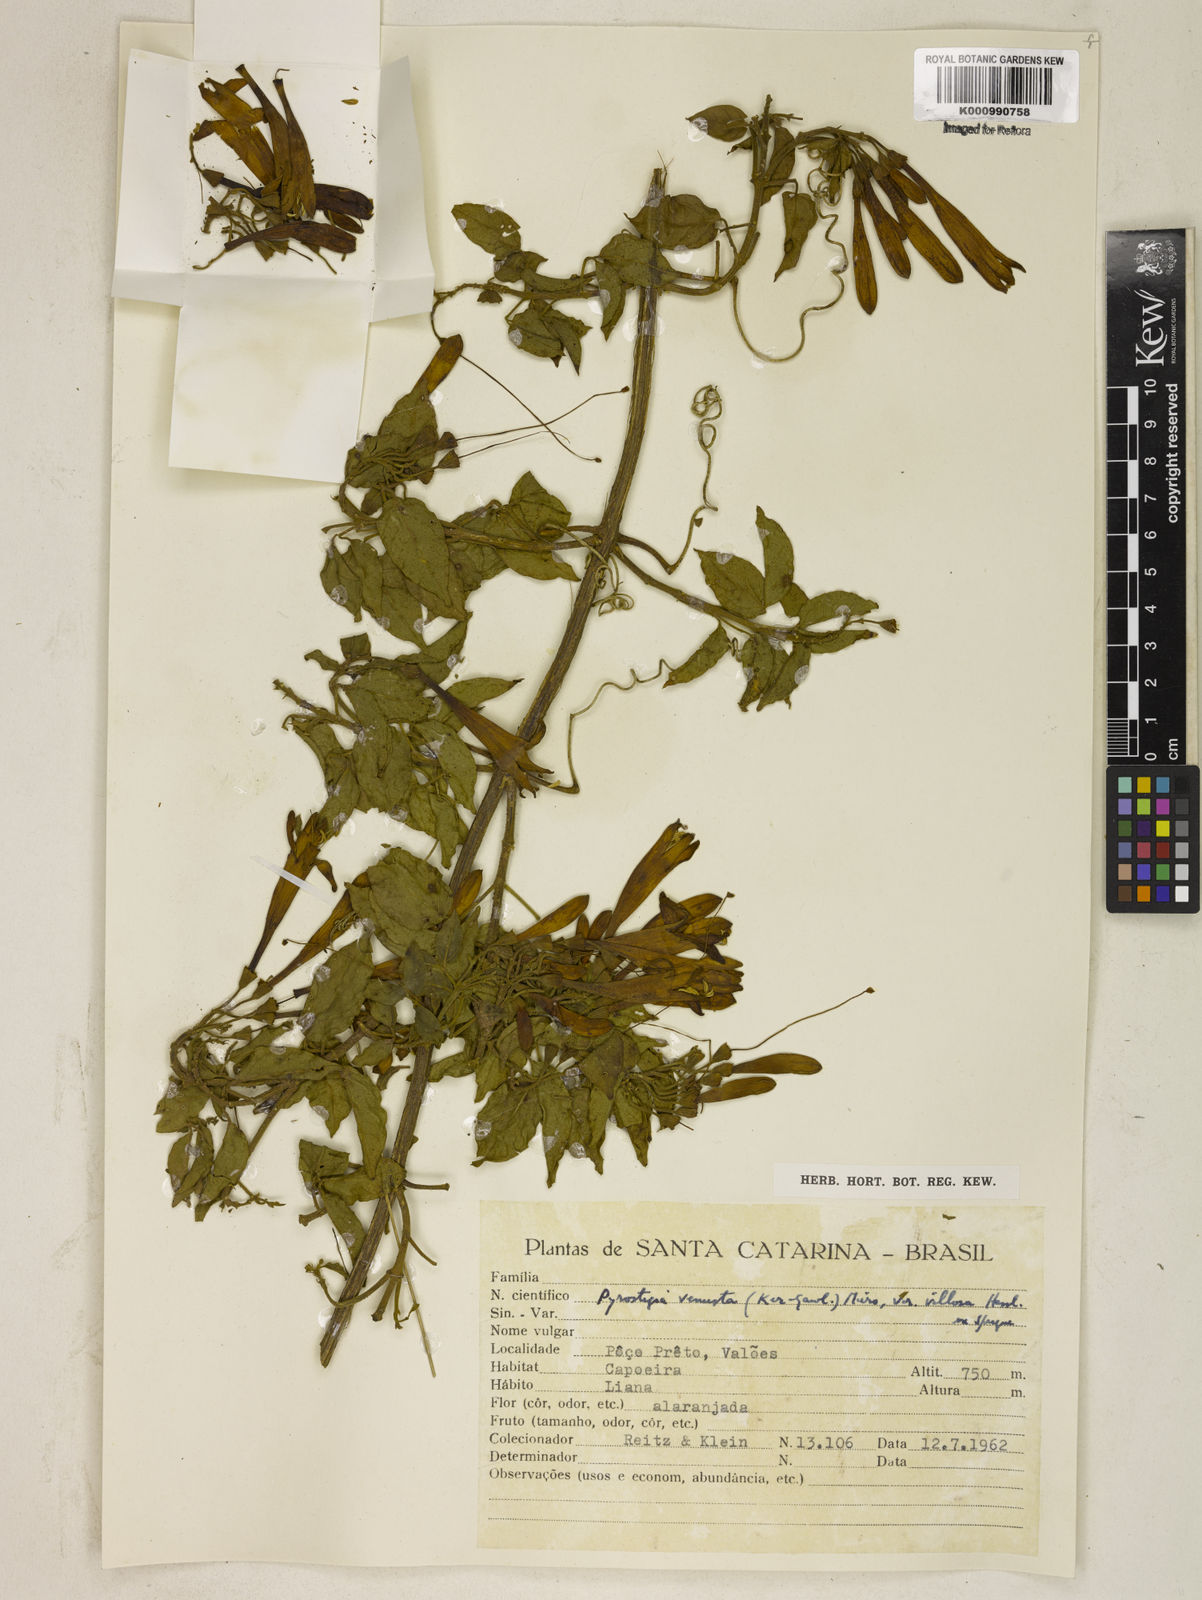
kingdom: Plantae
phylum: Tracheophyta
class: Magnoliopsida
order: Lamiales
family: Bignoniaceae
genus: Pyrostegia
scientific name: Pyrostegia venusta
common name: Flamevine
